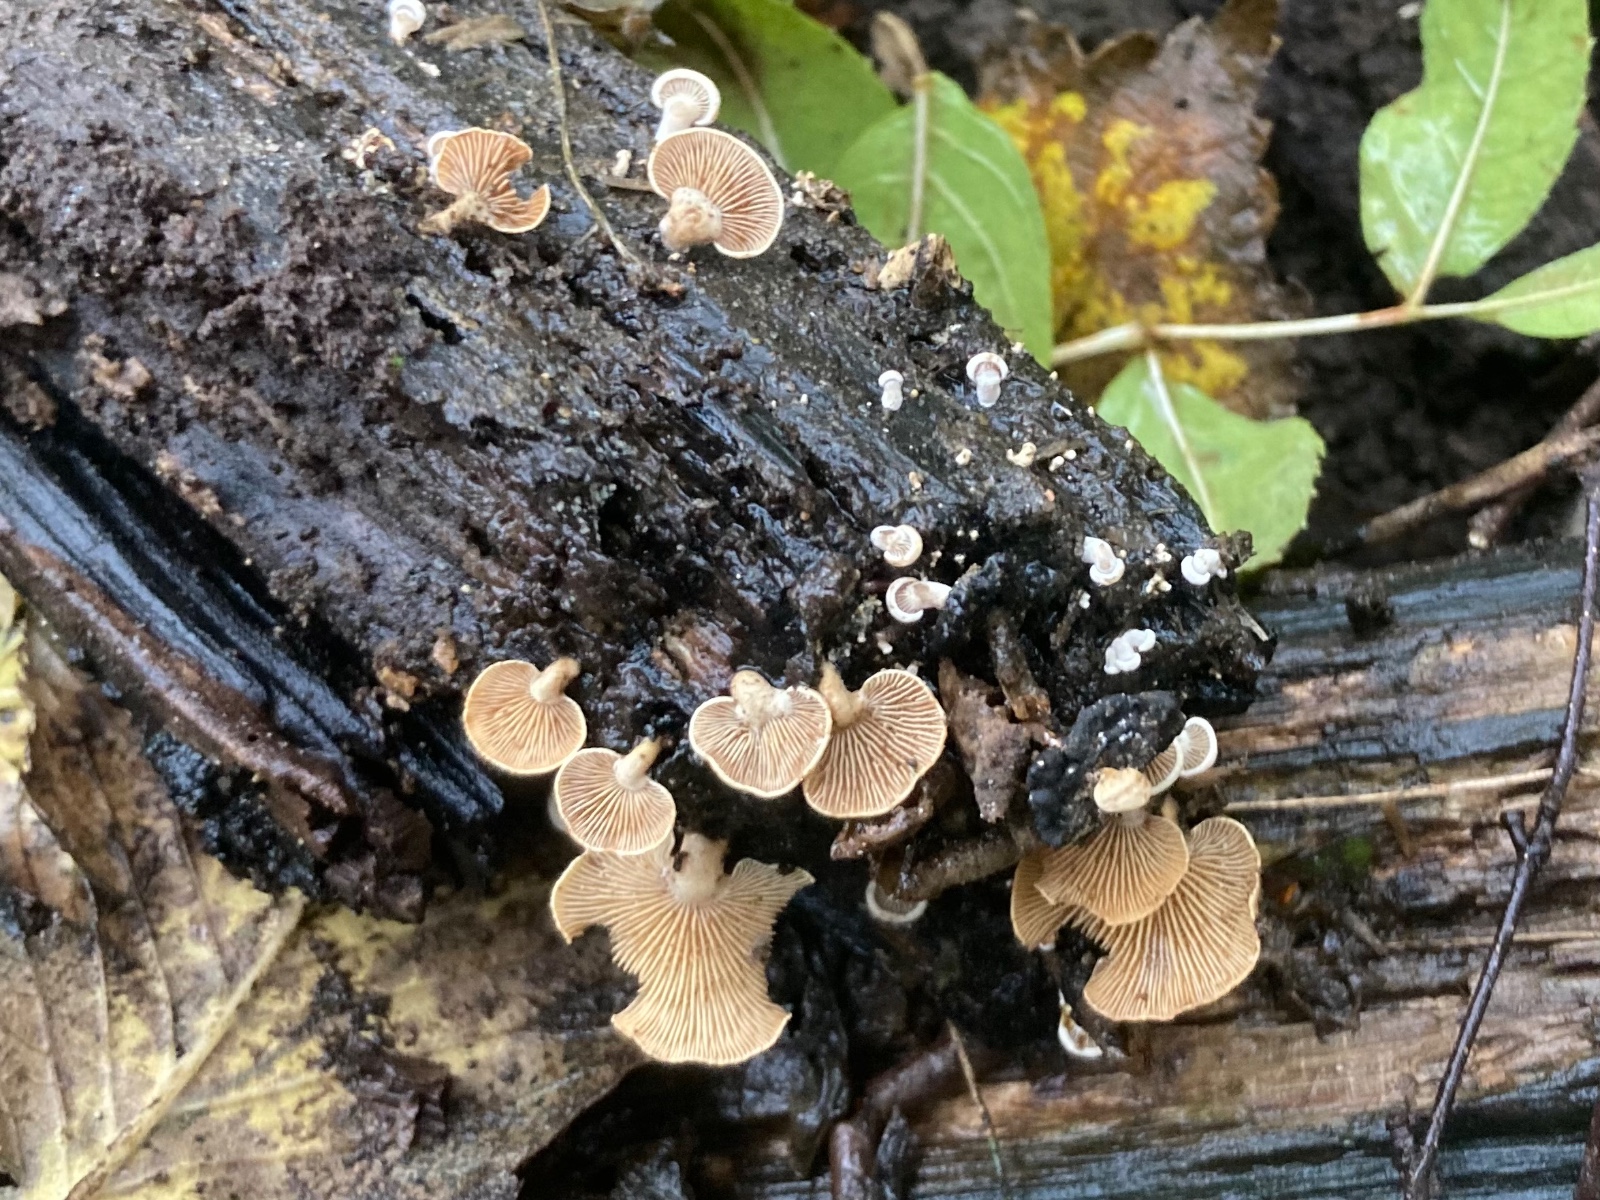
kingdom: Fungi
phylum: Basidiomycota
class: Agaricomycetes
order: Agaricales
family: Mycenaceae
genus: Panellus
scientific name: Panellus stipticus
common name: kliddet epaulethat
